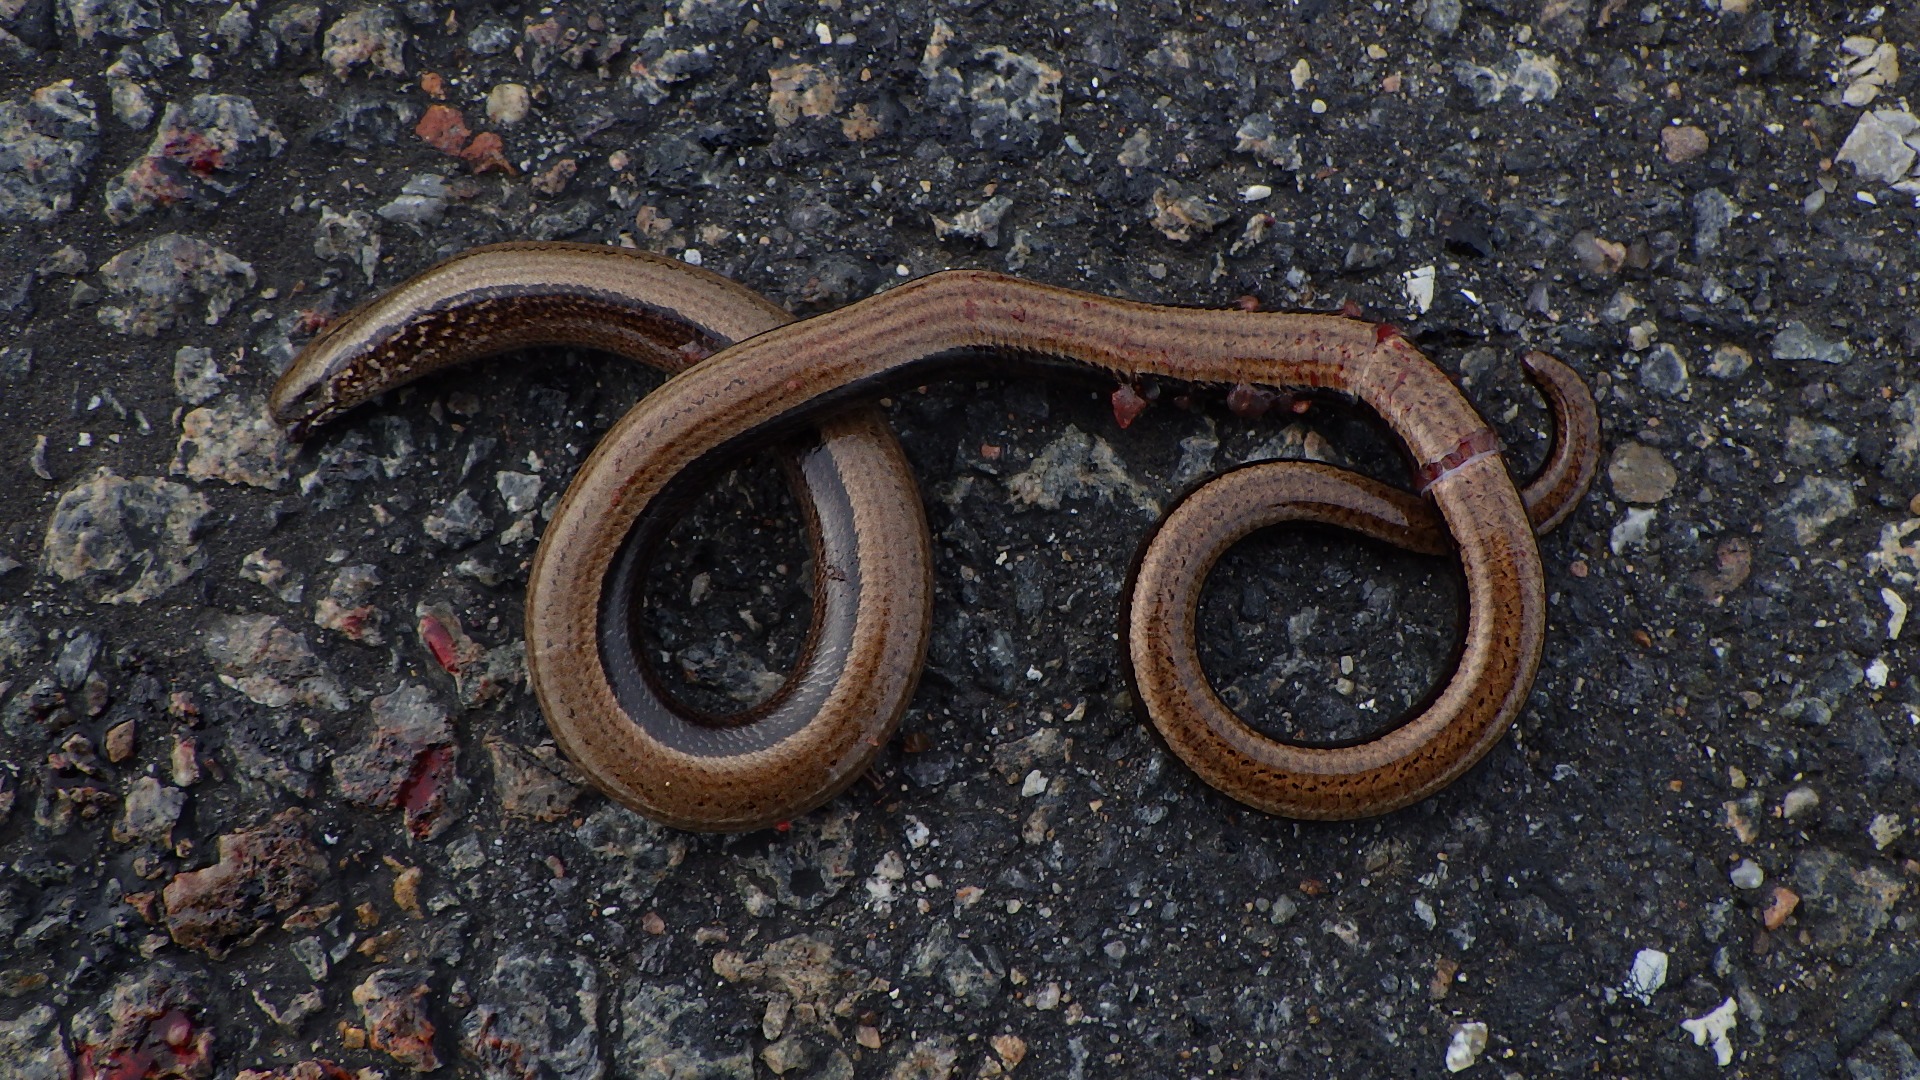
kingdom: Animalia
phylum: Chordata
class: Squamata
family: Anguidae
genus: Anguis
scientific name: Anguis fragilis
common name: Stålorm
